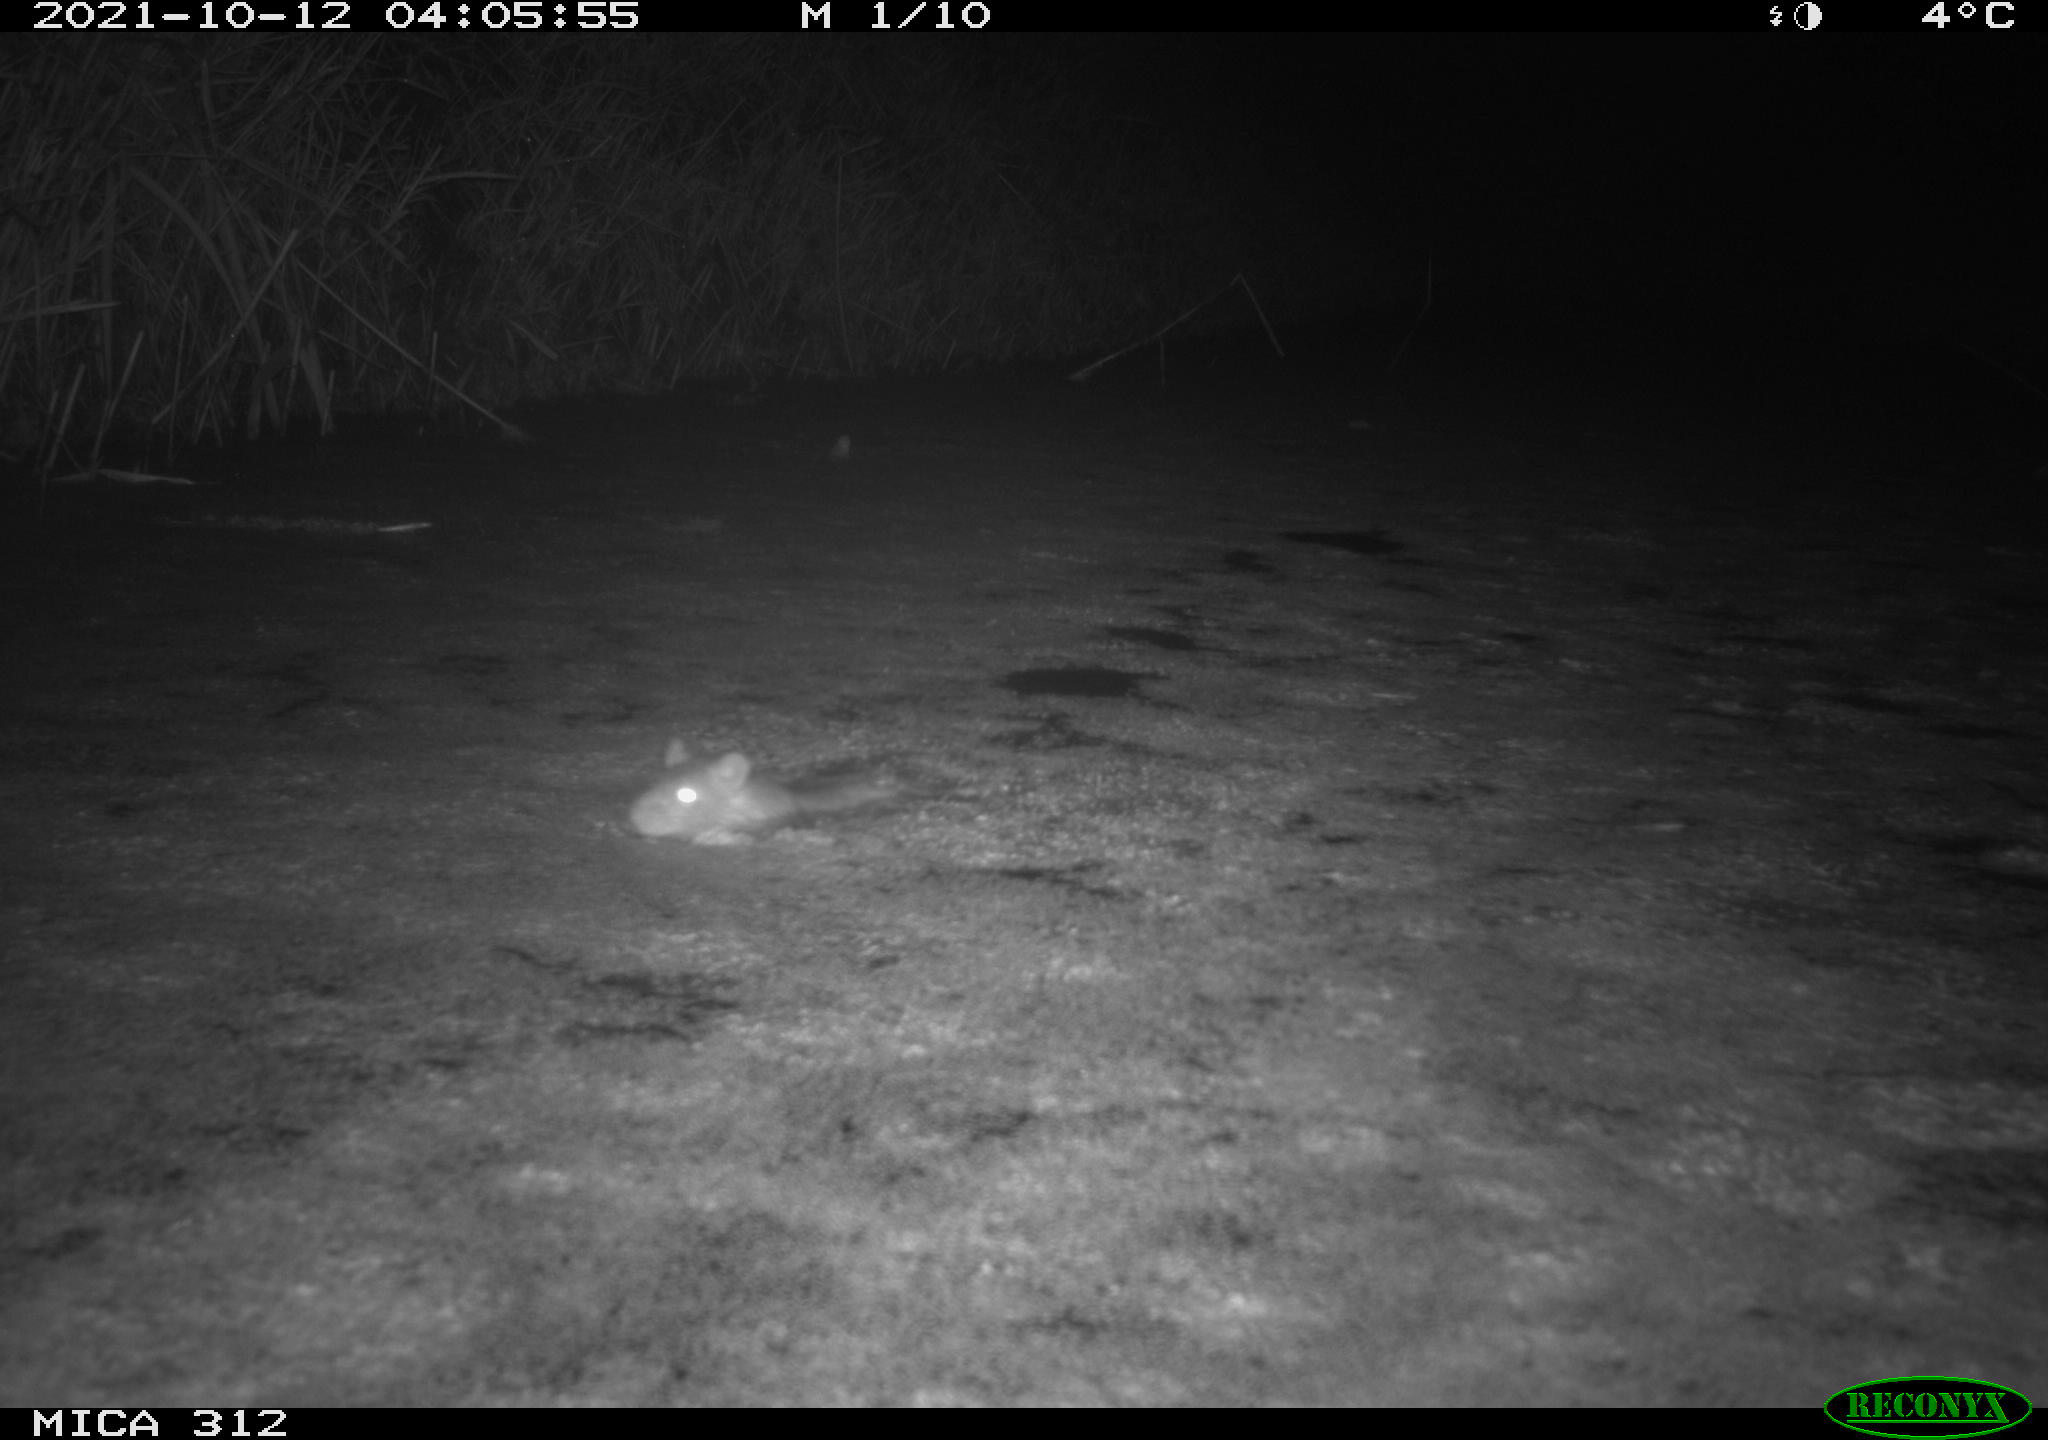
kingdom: Animalia
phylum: Chordata
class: Mammalia
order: Rodentia
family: Muridae
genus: Rattus
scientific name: Rattus norvegicus
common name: Brown rat
